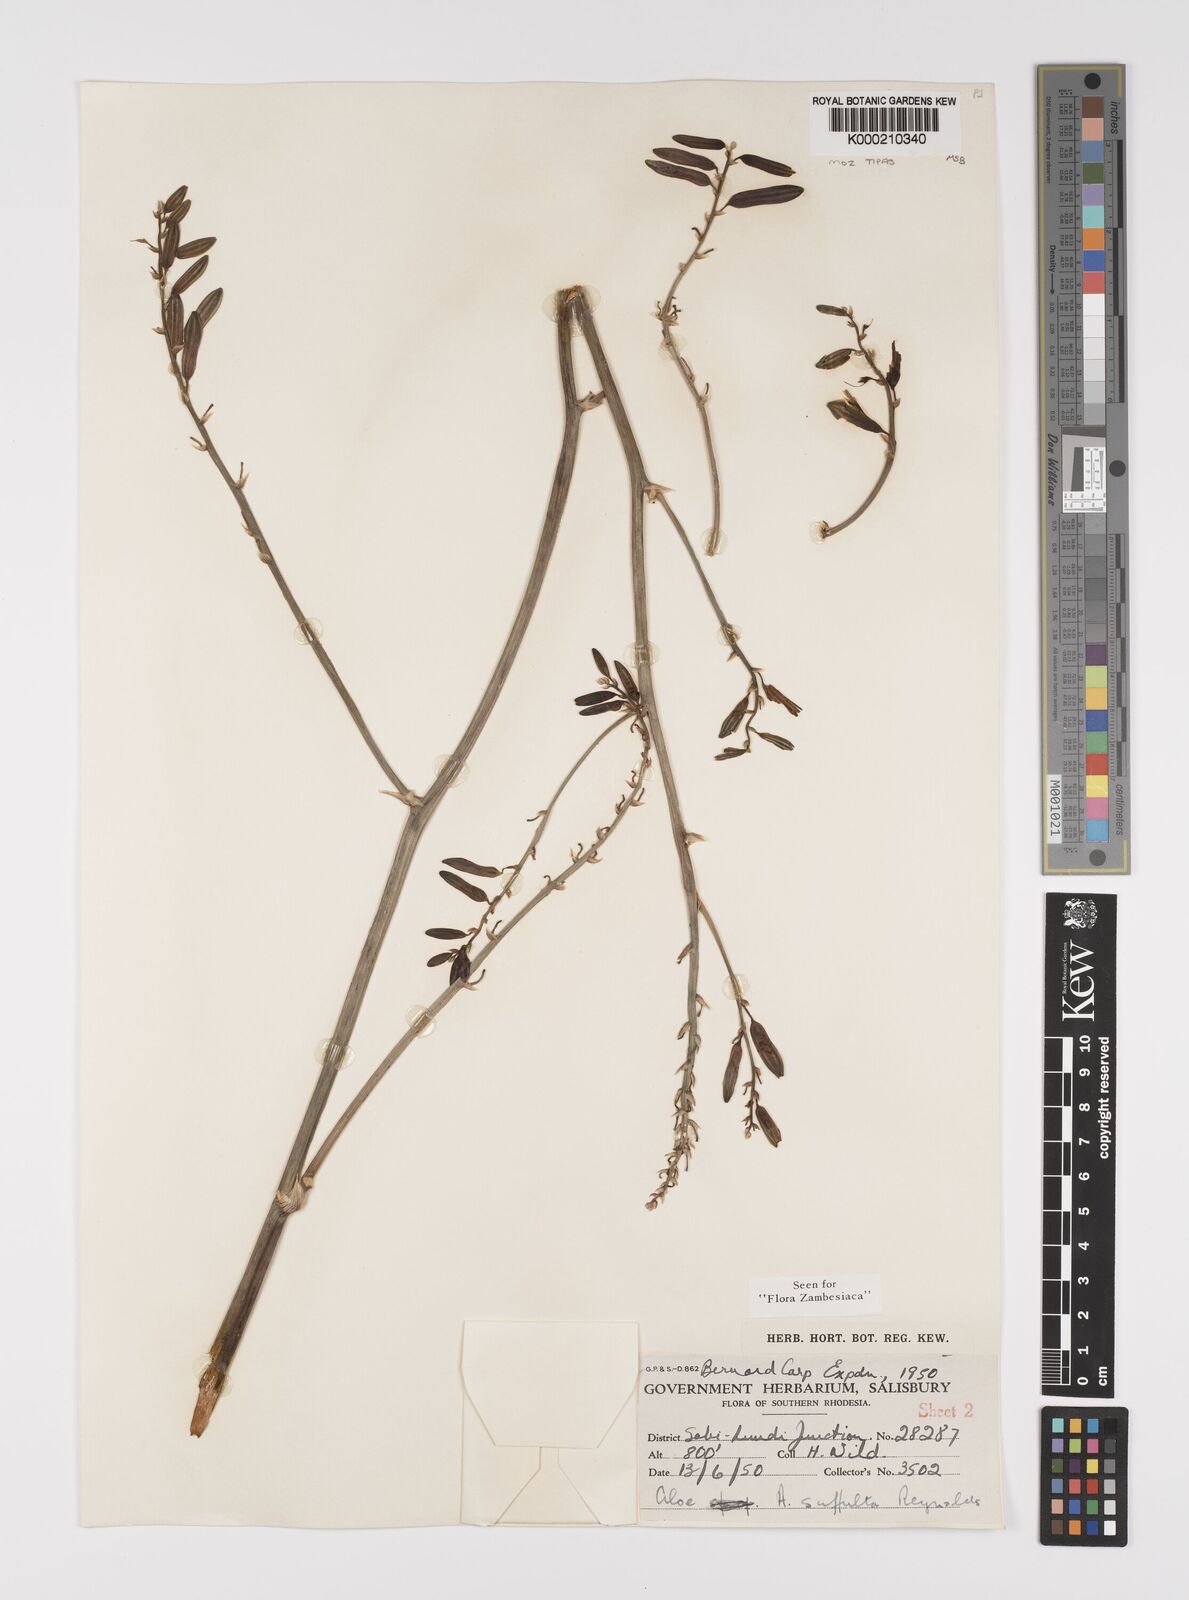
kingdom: Plantae
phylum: Tracheophyta
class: Liliopsida
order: Asparagales
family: Asphodelaceae
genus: Aloe
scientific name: Aloe suffulta
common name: Climbing-flower aloe
